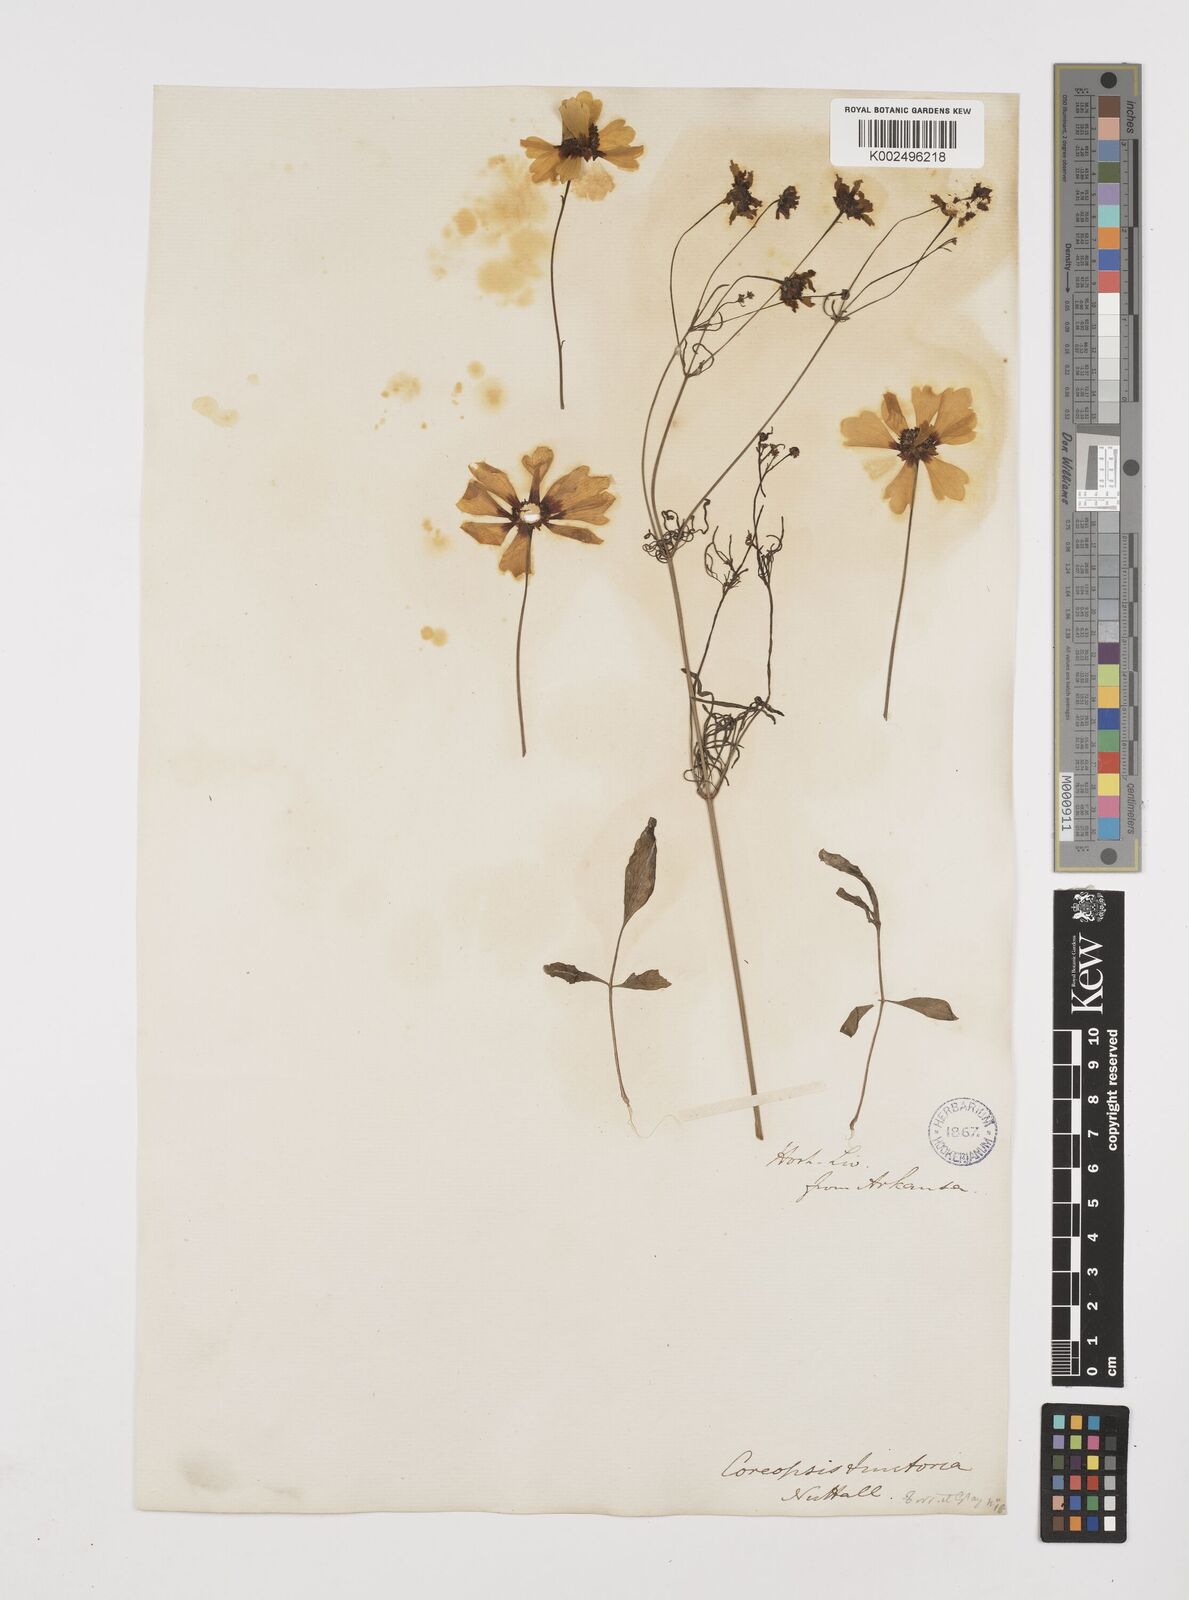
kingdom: Plantae
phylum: Tracheophyta
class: Magnoliopsida
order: Asterales
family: Asteraceae
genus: Coreopsis
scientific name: Coreopsis tinctoria
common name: Garden tickseed
